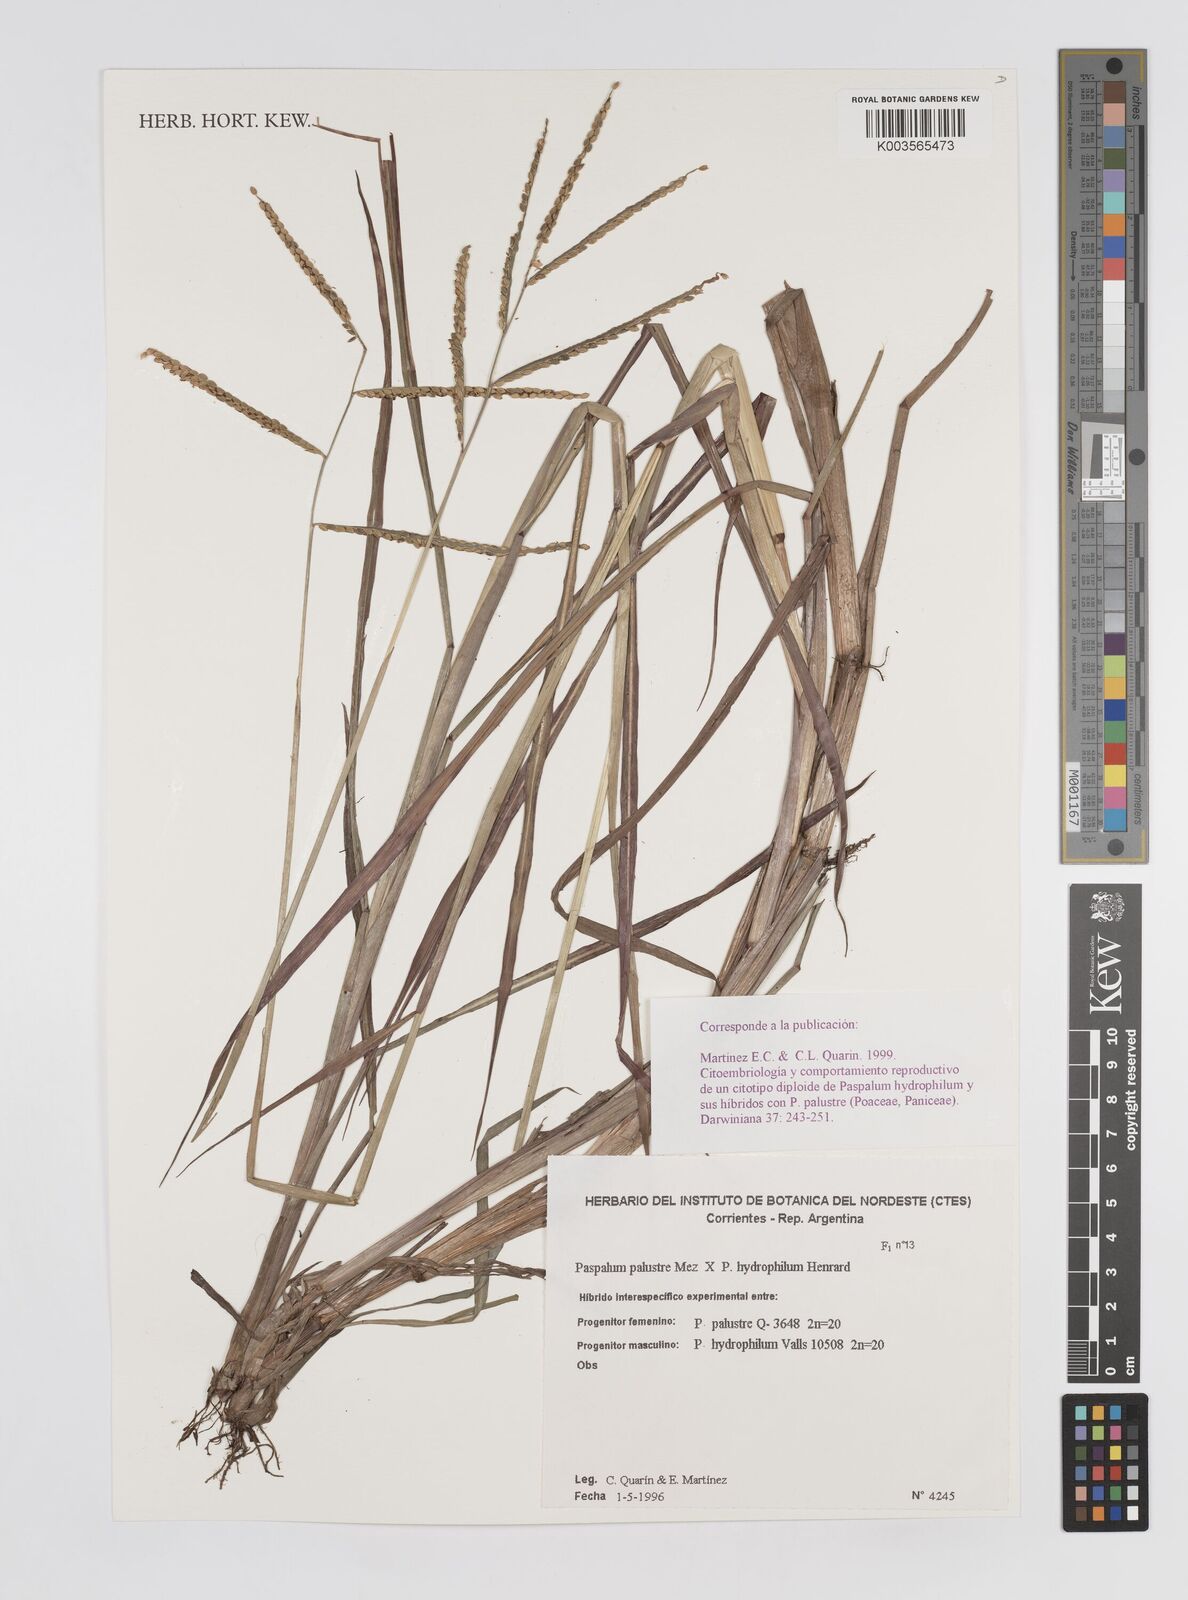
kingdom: Plantae
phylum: Tracheophyta
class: Liliopsida
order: Poales
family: Poaceae
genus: Paspalum
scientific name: Paspalum wrightii
